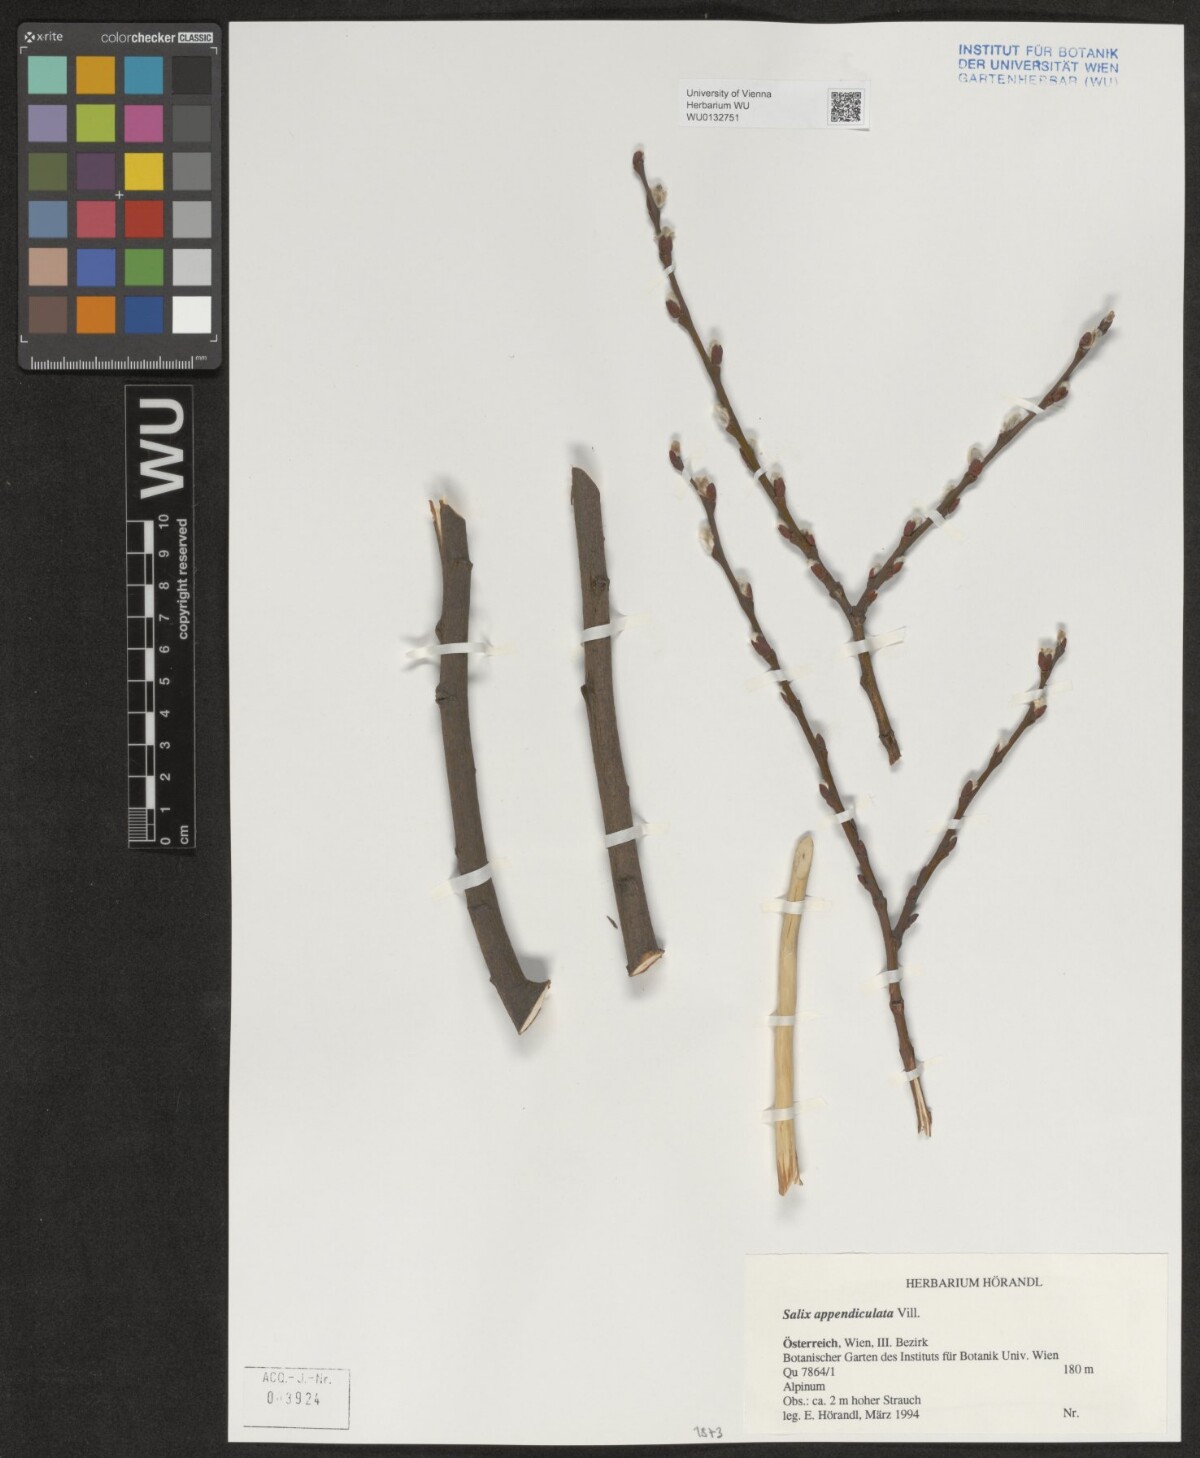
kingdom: Plantae
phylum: Tracheophyta
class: Magnoliopsida
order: Malpighiales
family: Salicaceae
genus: Salix
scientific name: Salix appendiculata
